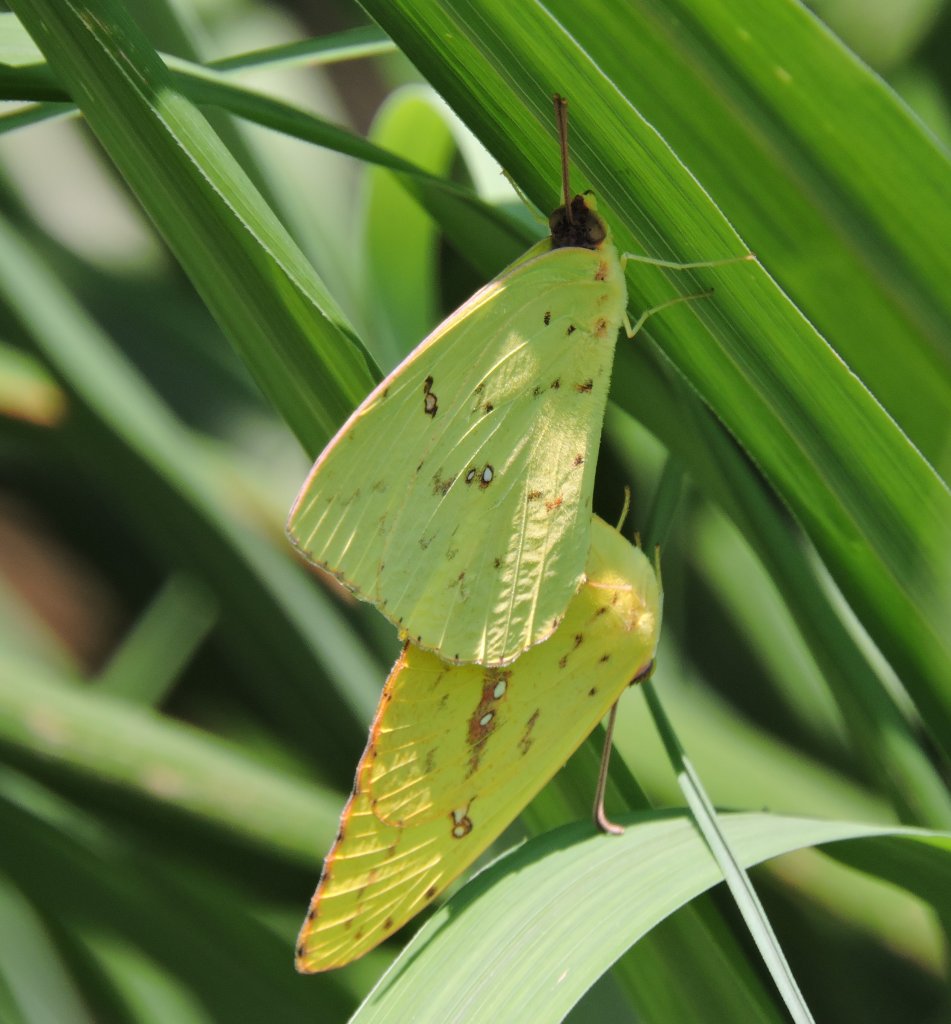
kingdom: Animalia
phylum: Arthropoda
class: Insecta
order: Lepidoptera
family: Pieridae
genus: Phoebis
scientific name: Phoebis sennae
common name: Cloudless Sulphur
